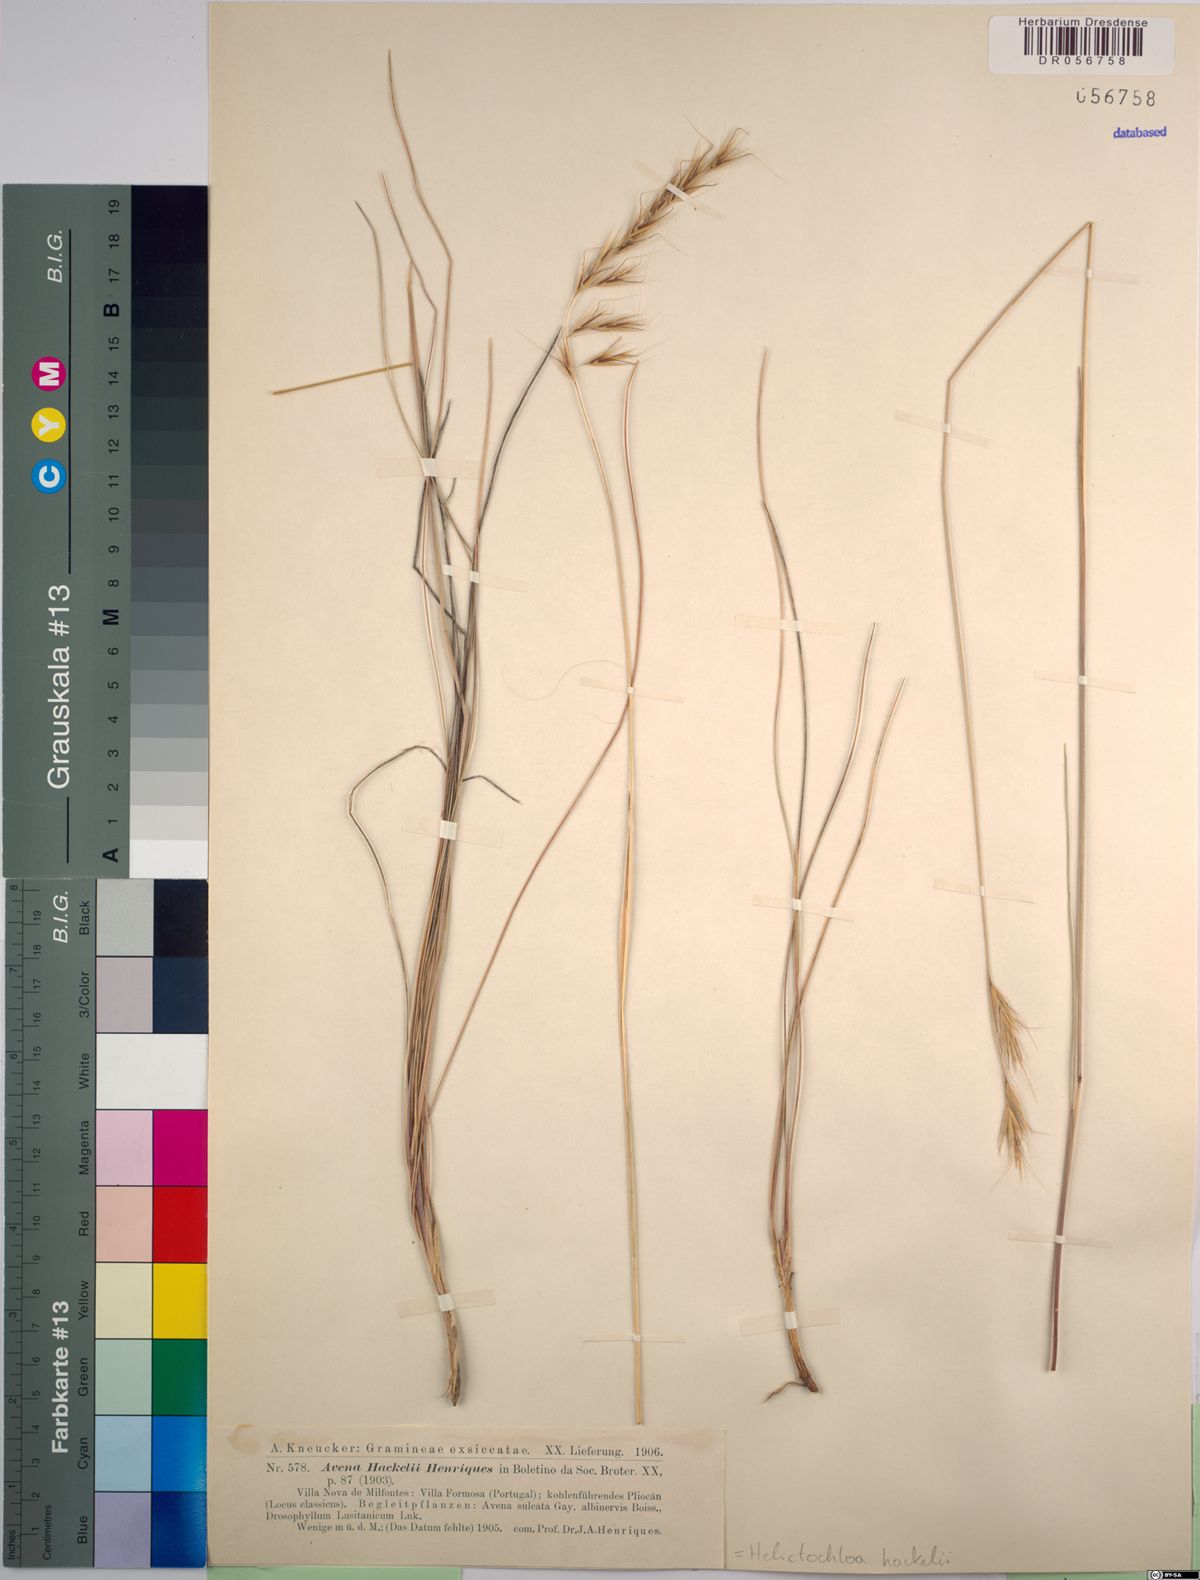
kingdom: Plantae
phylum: Tracheophyta
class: Liliopsida
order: Poales
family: Poaceae
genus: Helictochloa
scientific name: Helictochloa hackelii
